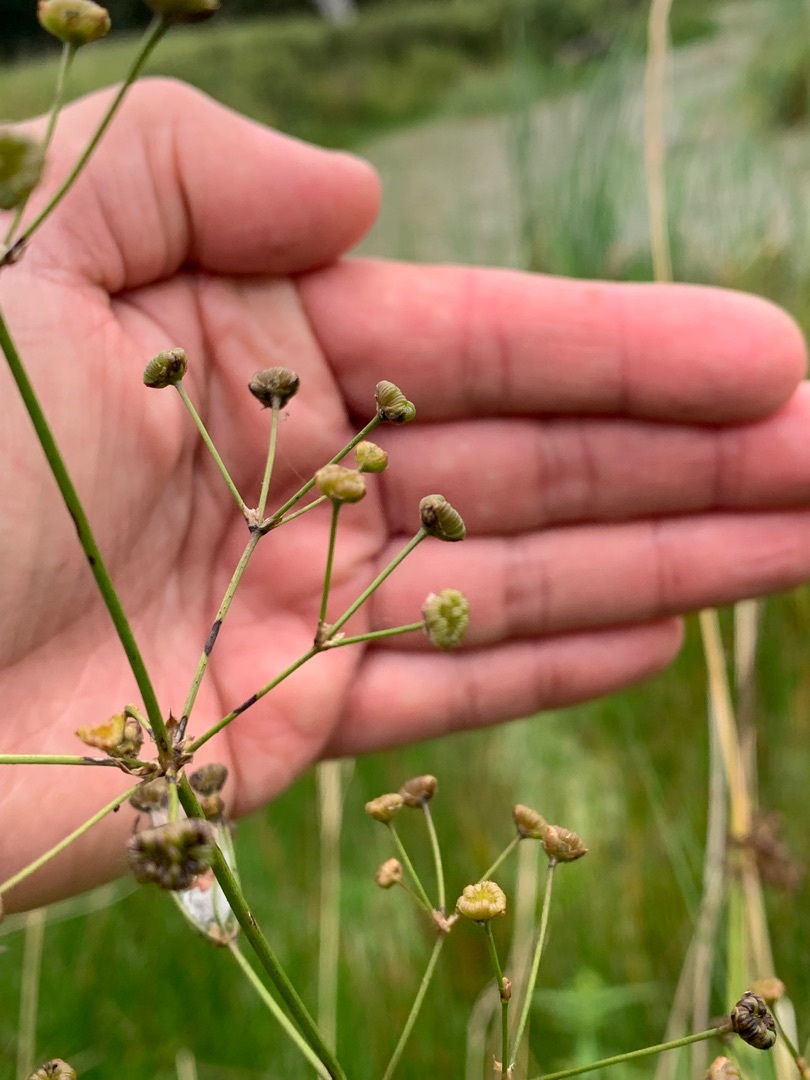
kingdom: Plantae
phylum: Tracheophyta
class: Liliopsida
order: Alismatales
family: Alismataceae
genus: Alisma
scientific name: Alisma plantago-aquatica
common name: Vejbred-skeblad
